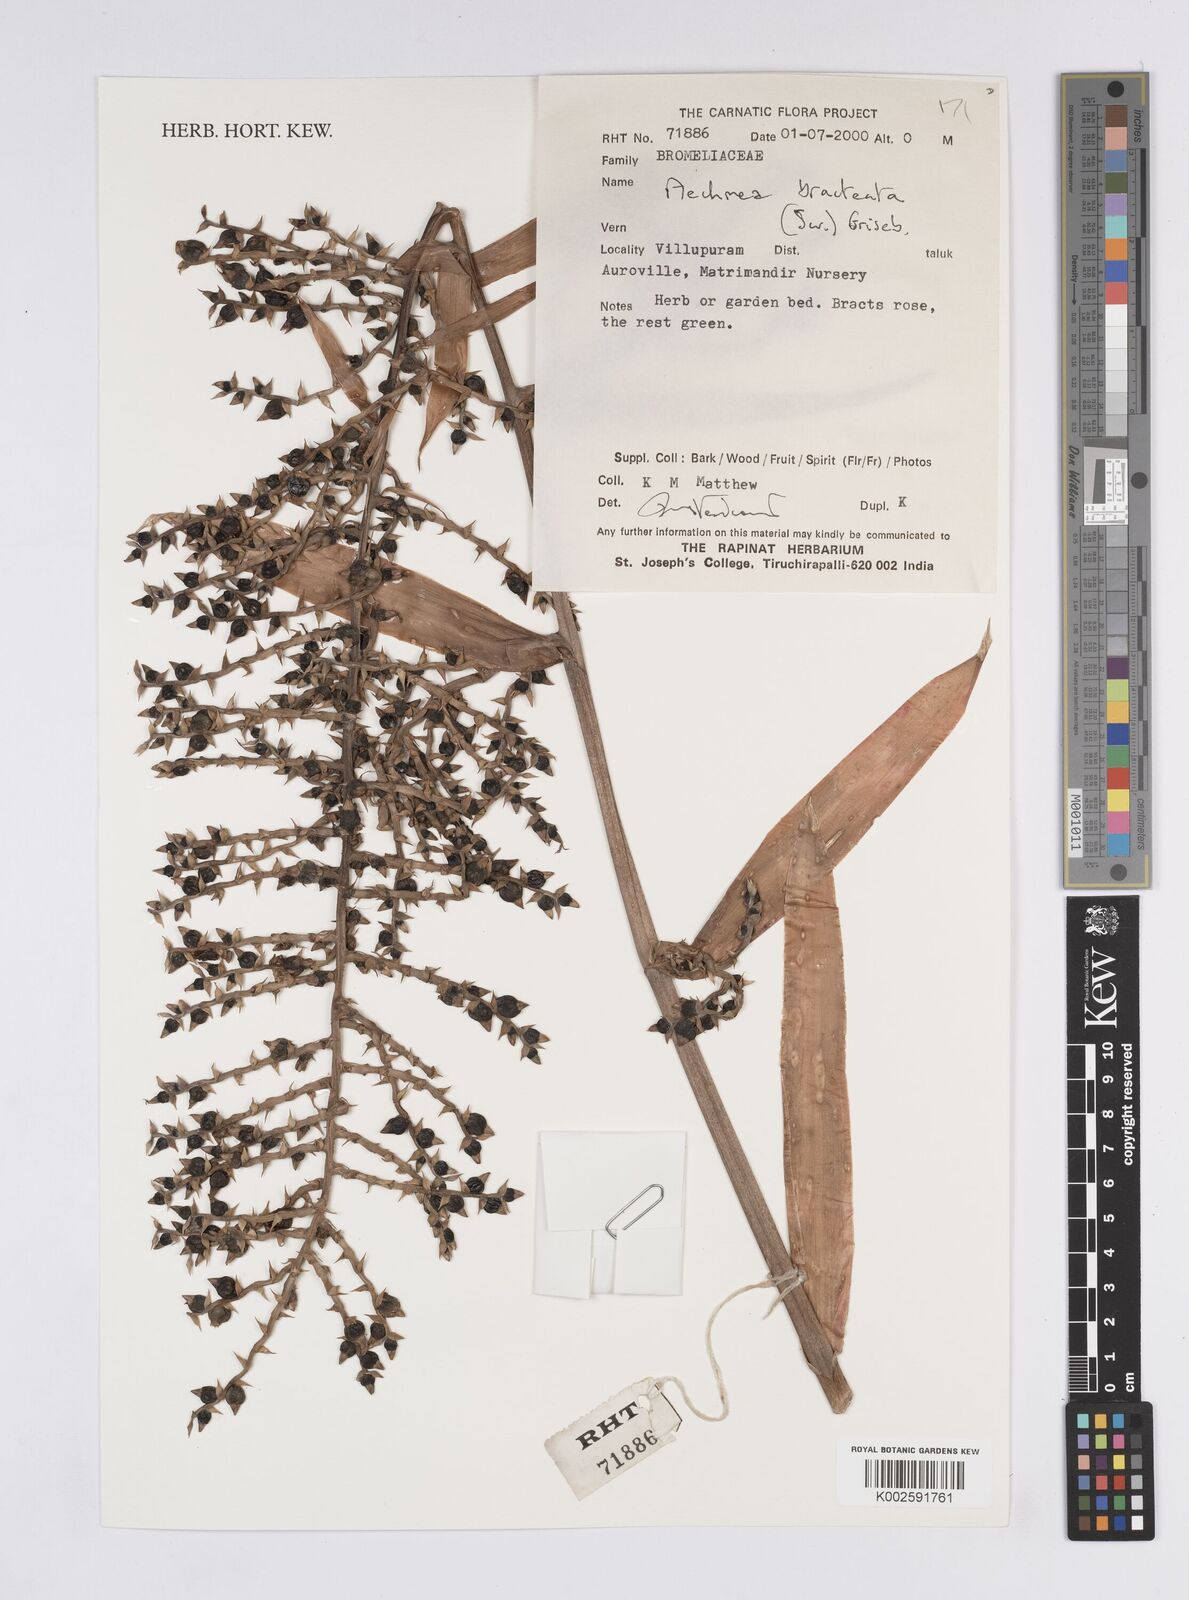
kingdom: Plantae
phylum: Tracheophyta
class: Liliopsida
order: Poales
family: Bromeliaceae
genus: Aechmea
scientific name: Aechmea bracteata
